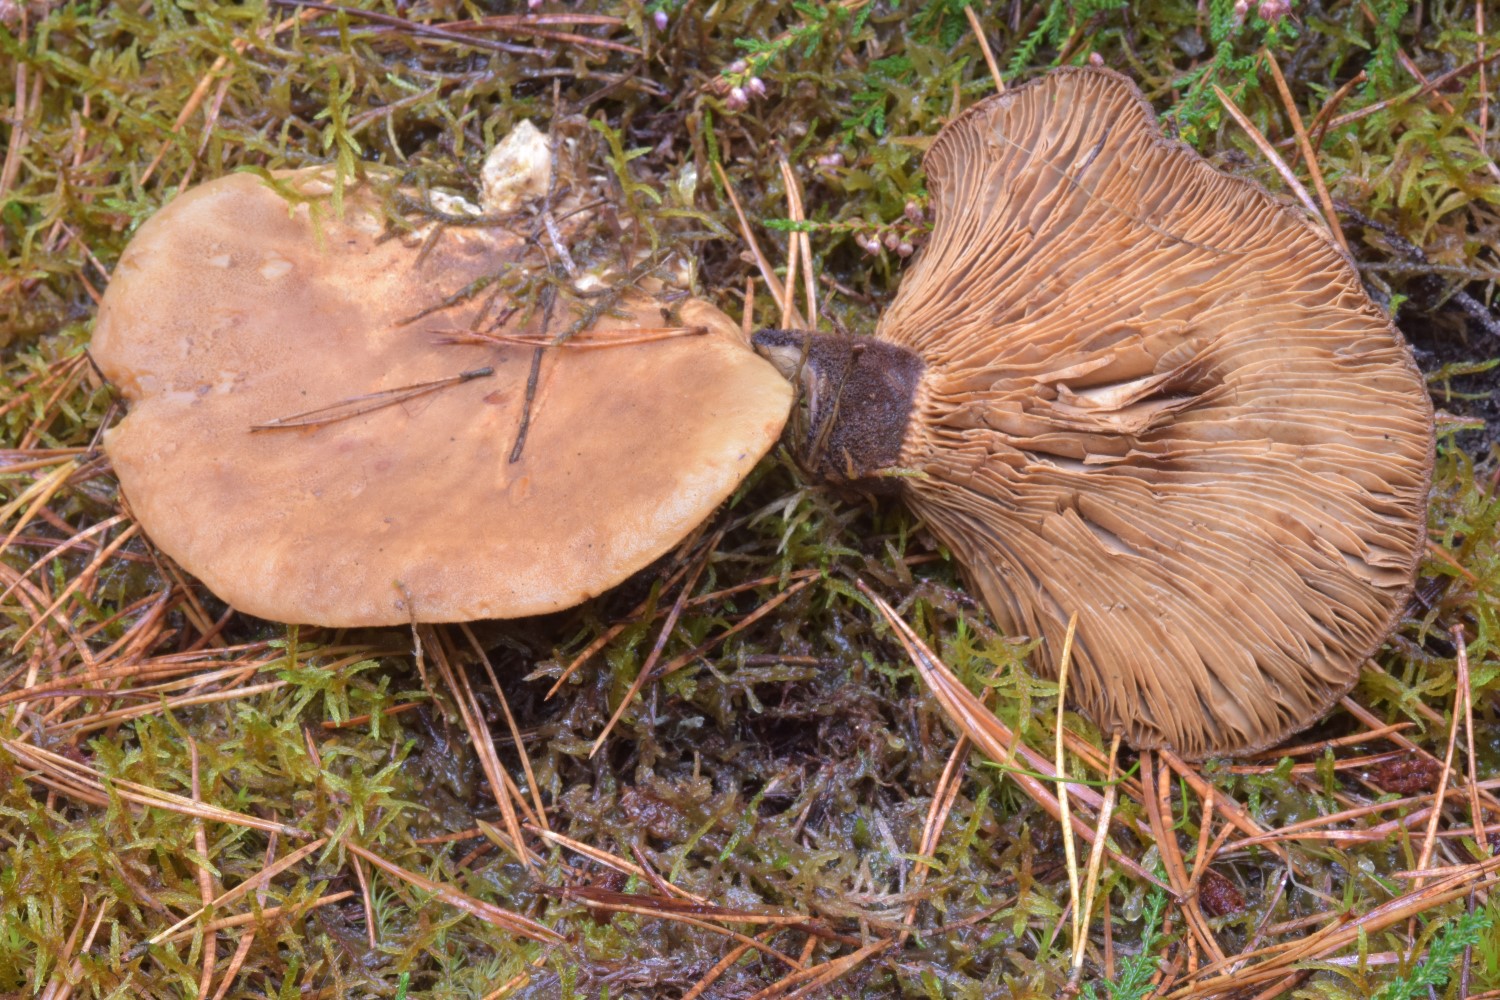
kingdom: Fungi
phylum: Basidiomycota
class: Agaricomycetes
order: Boletales
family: Tapinellaceae
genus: Tapinella
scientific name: Tapinella atrotomentosa
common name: sortfiltet viftesvamp
